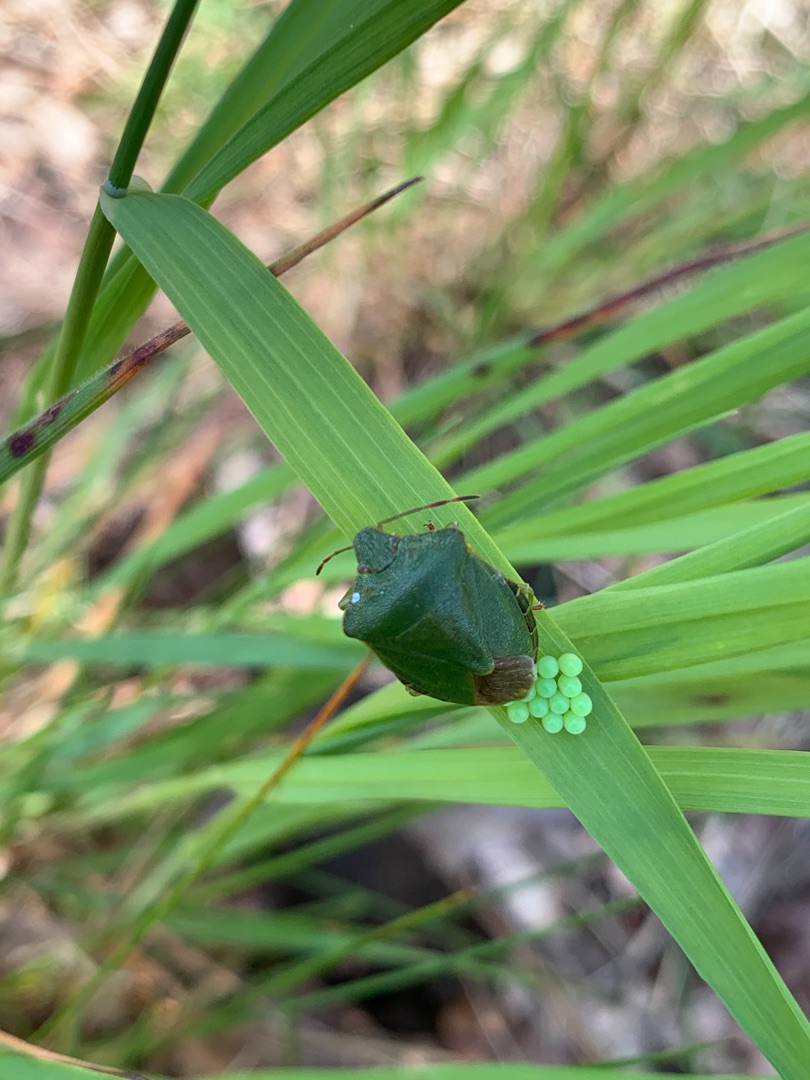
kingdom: Animalia
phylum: Arthropoda
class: Insecta
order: Hemiptera
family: Pentatomidae
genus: Palomena
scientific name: Palomena prasina
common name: Grøn bredtæge
